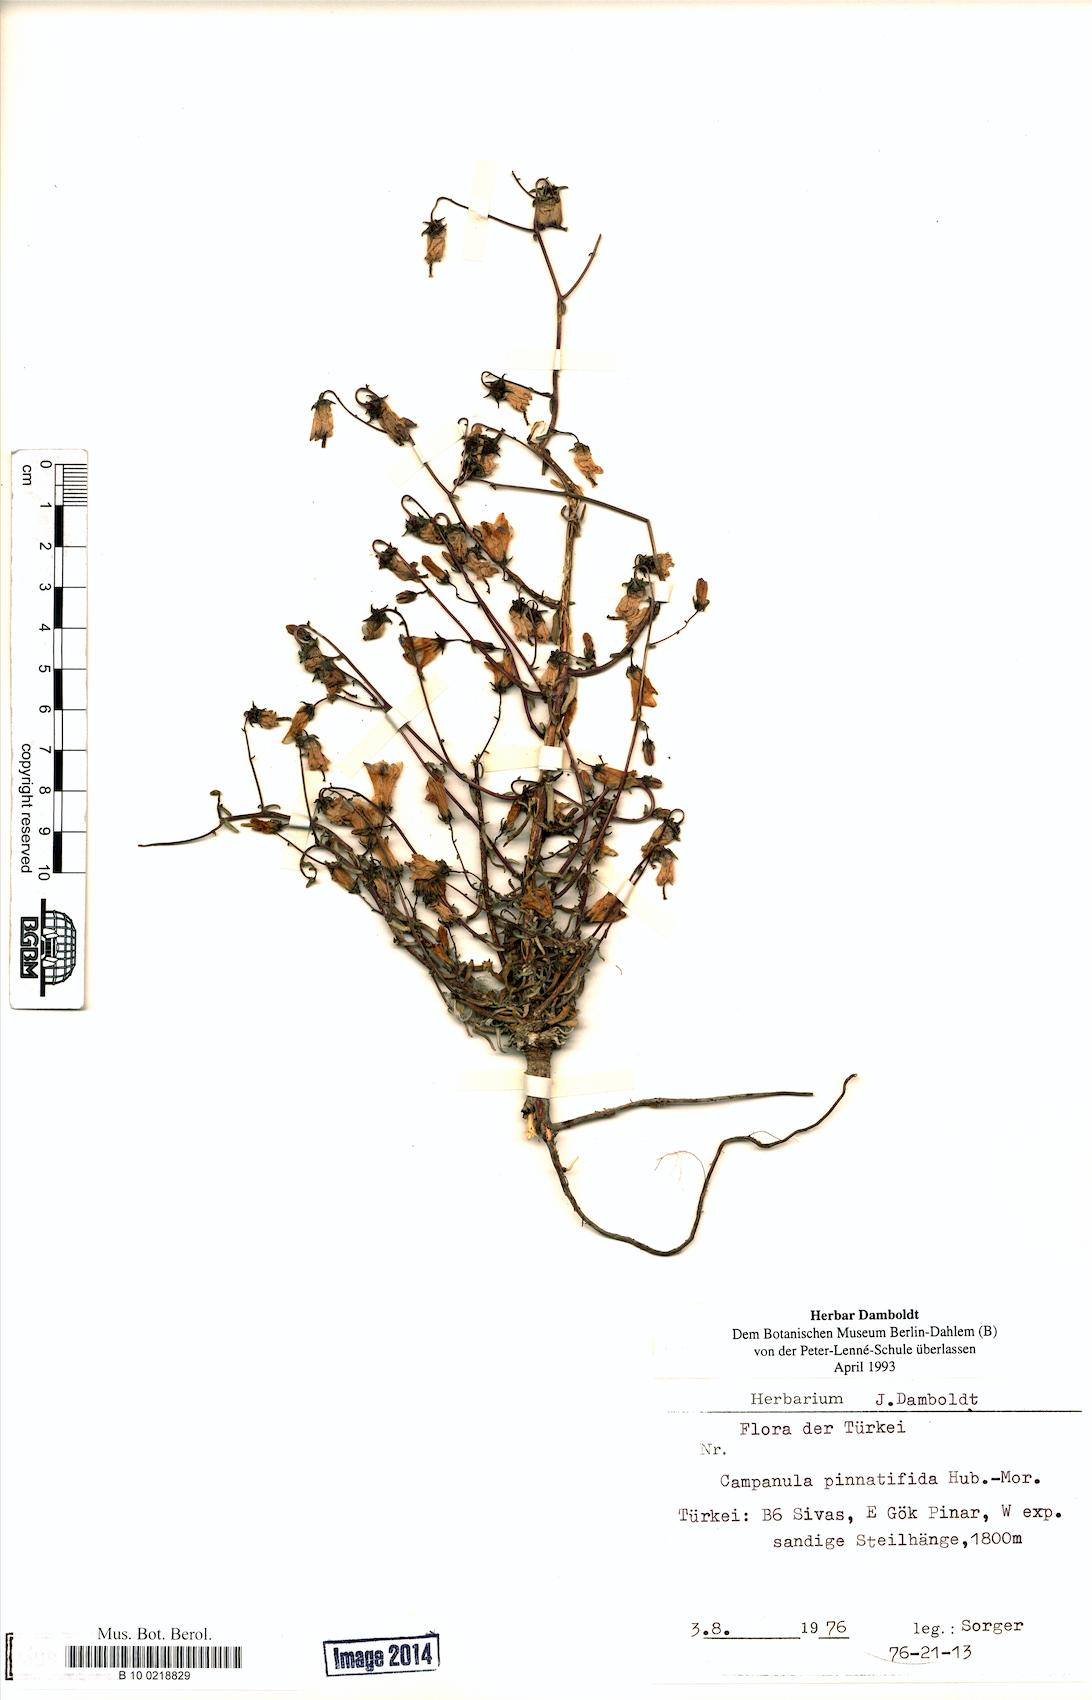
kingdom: Plantae
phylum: Tracheophyta
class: Magnoliopsida
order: Asterales
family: Campanulaceae
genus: Campanula
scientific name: Campanula pinnatifida
